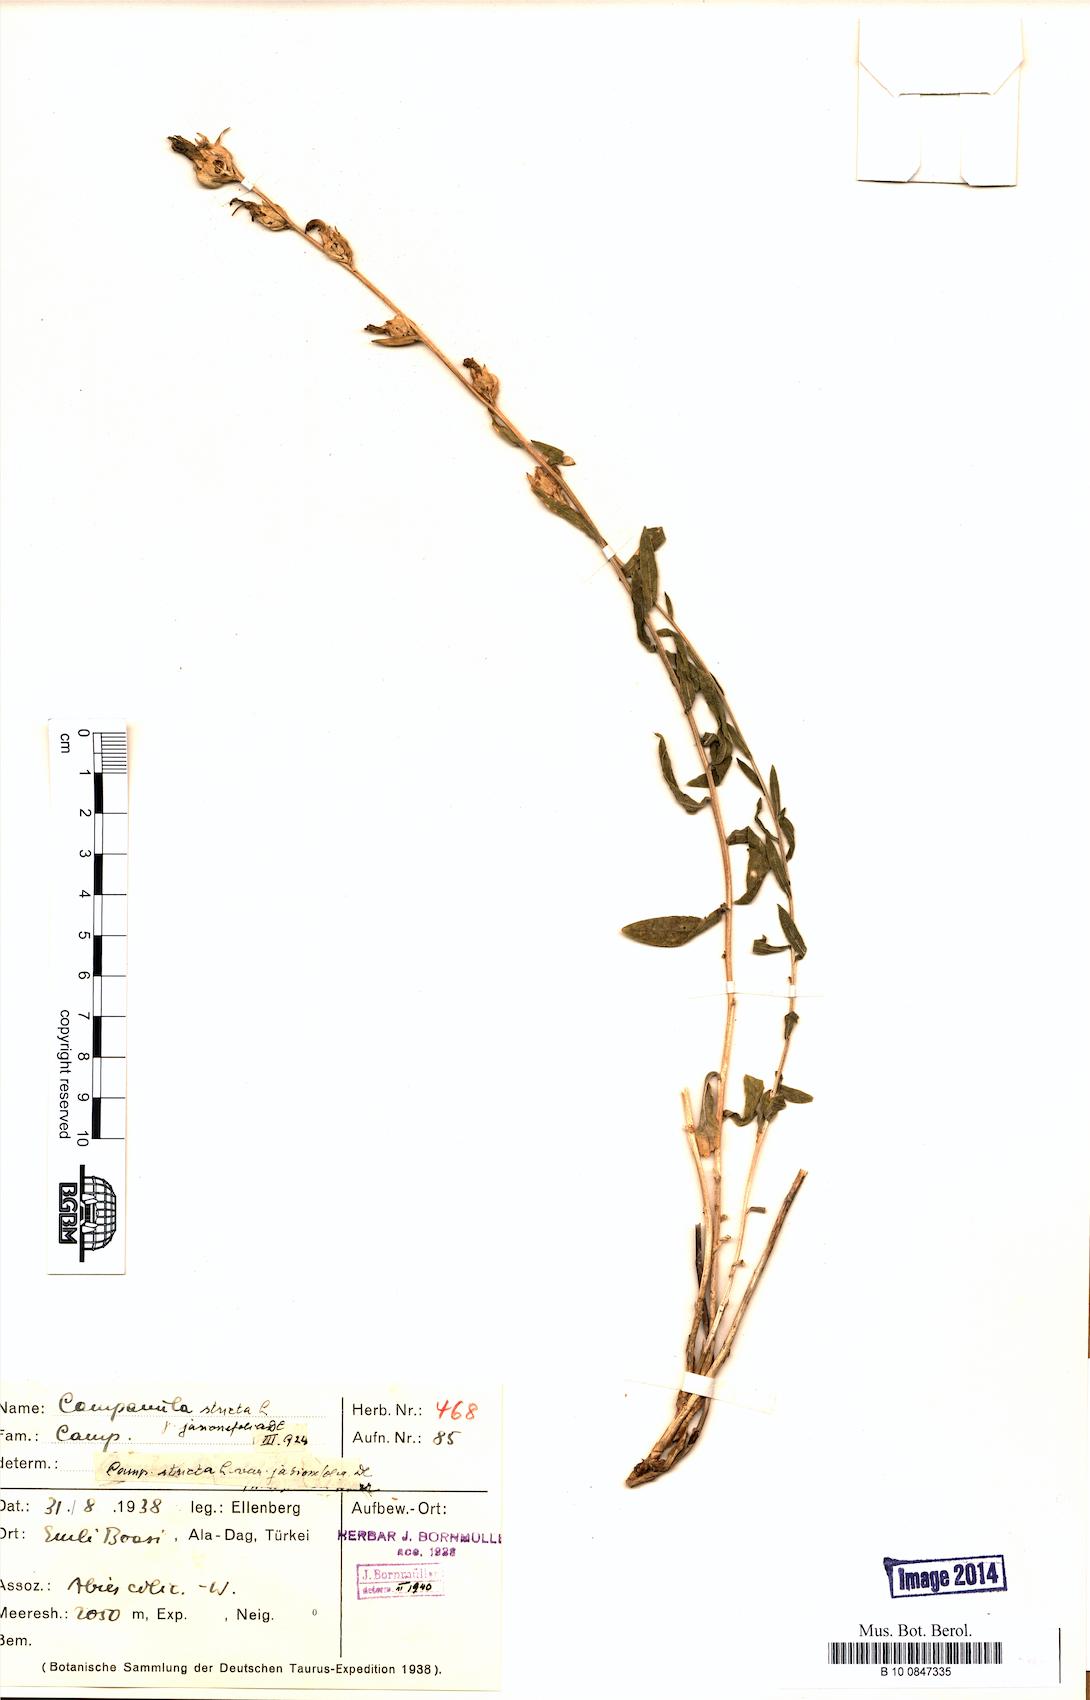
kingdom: Plantae
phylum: Tracheophyta
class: Magnoliopsida
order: Asterales
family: Campanulaceae
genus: Campanula
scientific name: Campanula stricta
